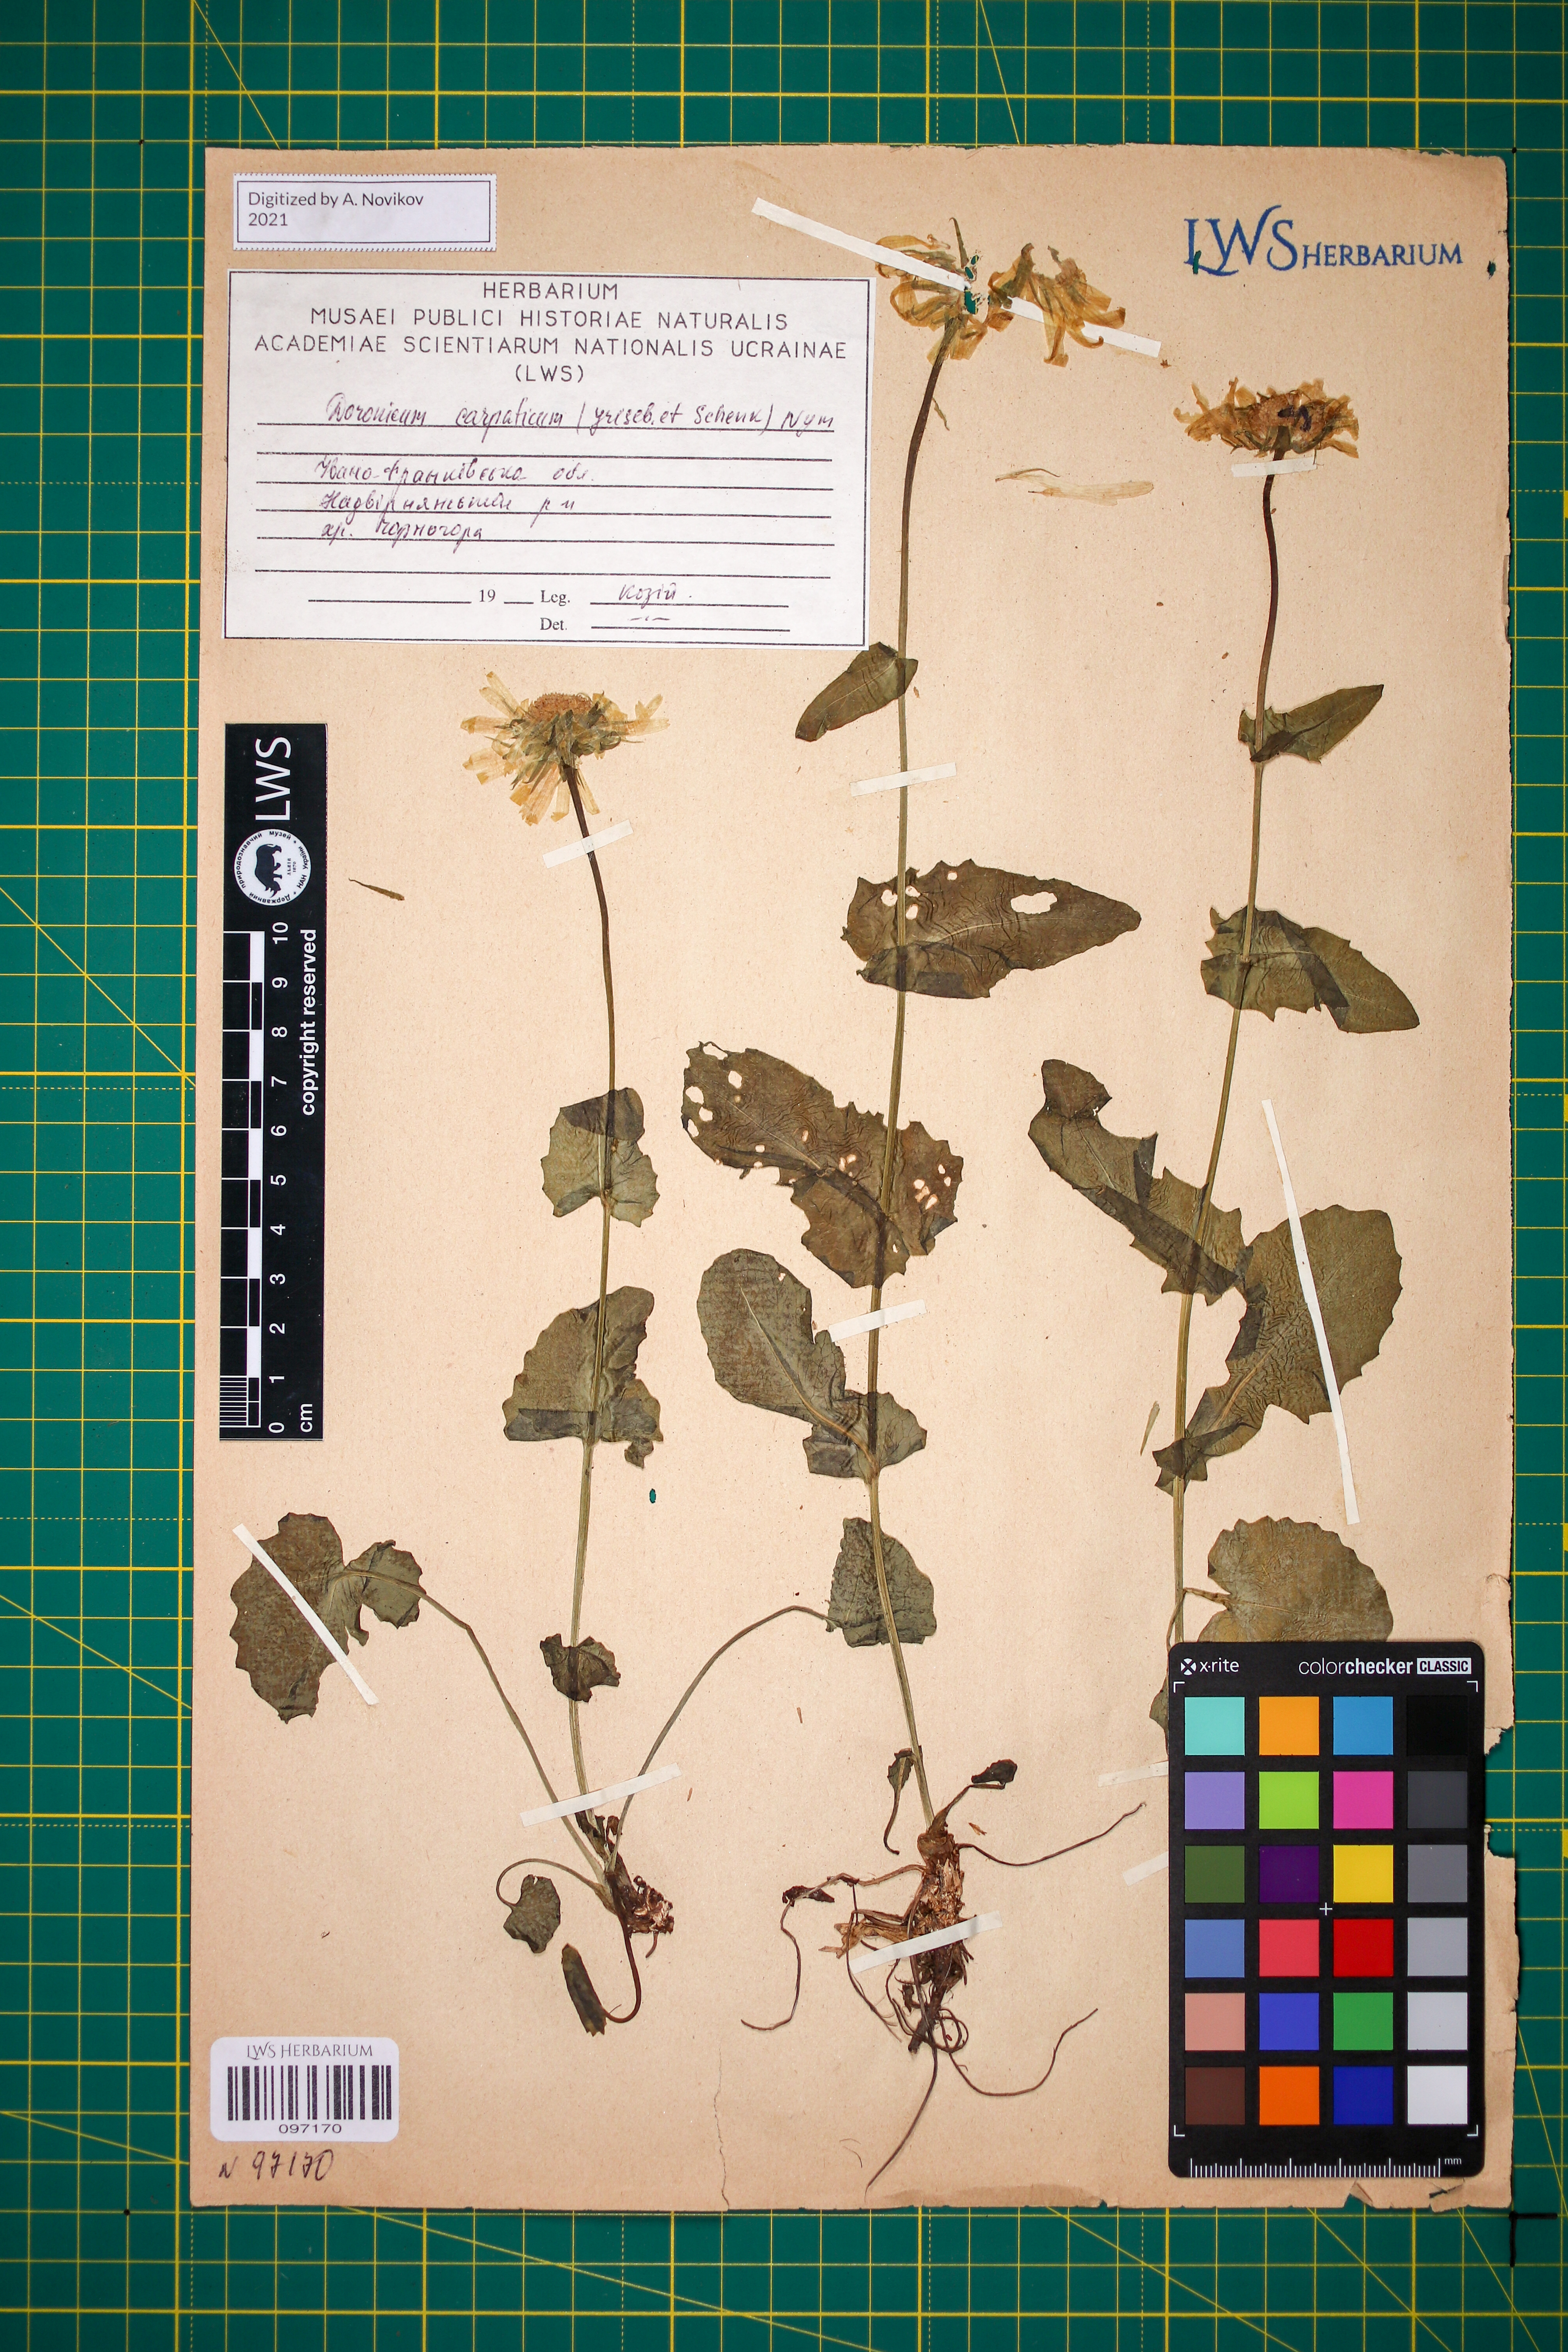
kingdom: Plantae
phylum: Tracheophyta
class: Magnoliopsida
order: Asterales
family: Asteraceae
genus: Doronicum
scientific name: Doronicum carpaticum
